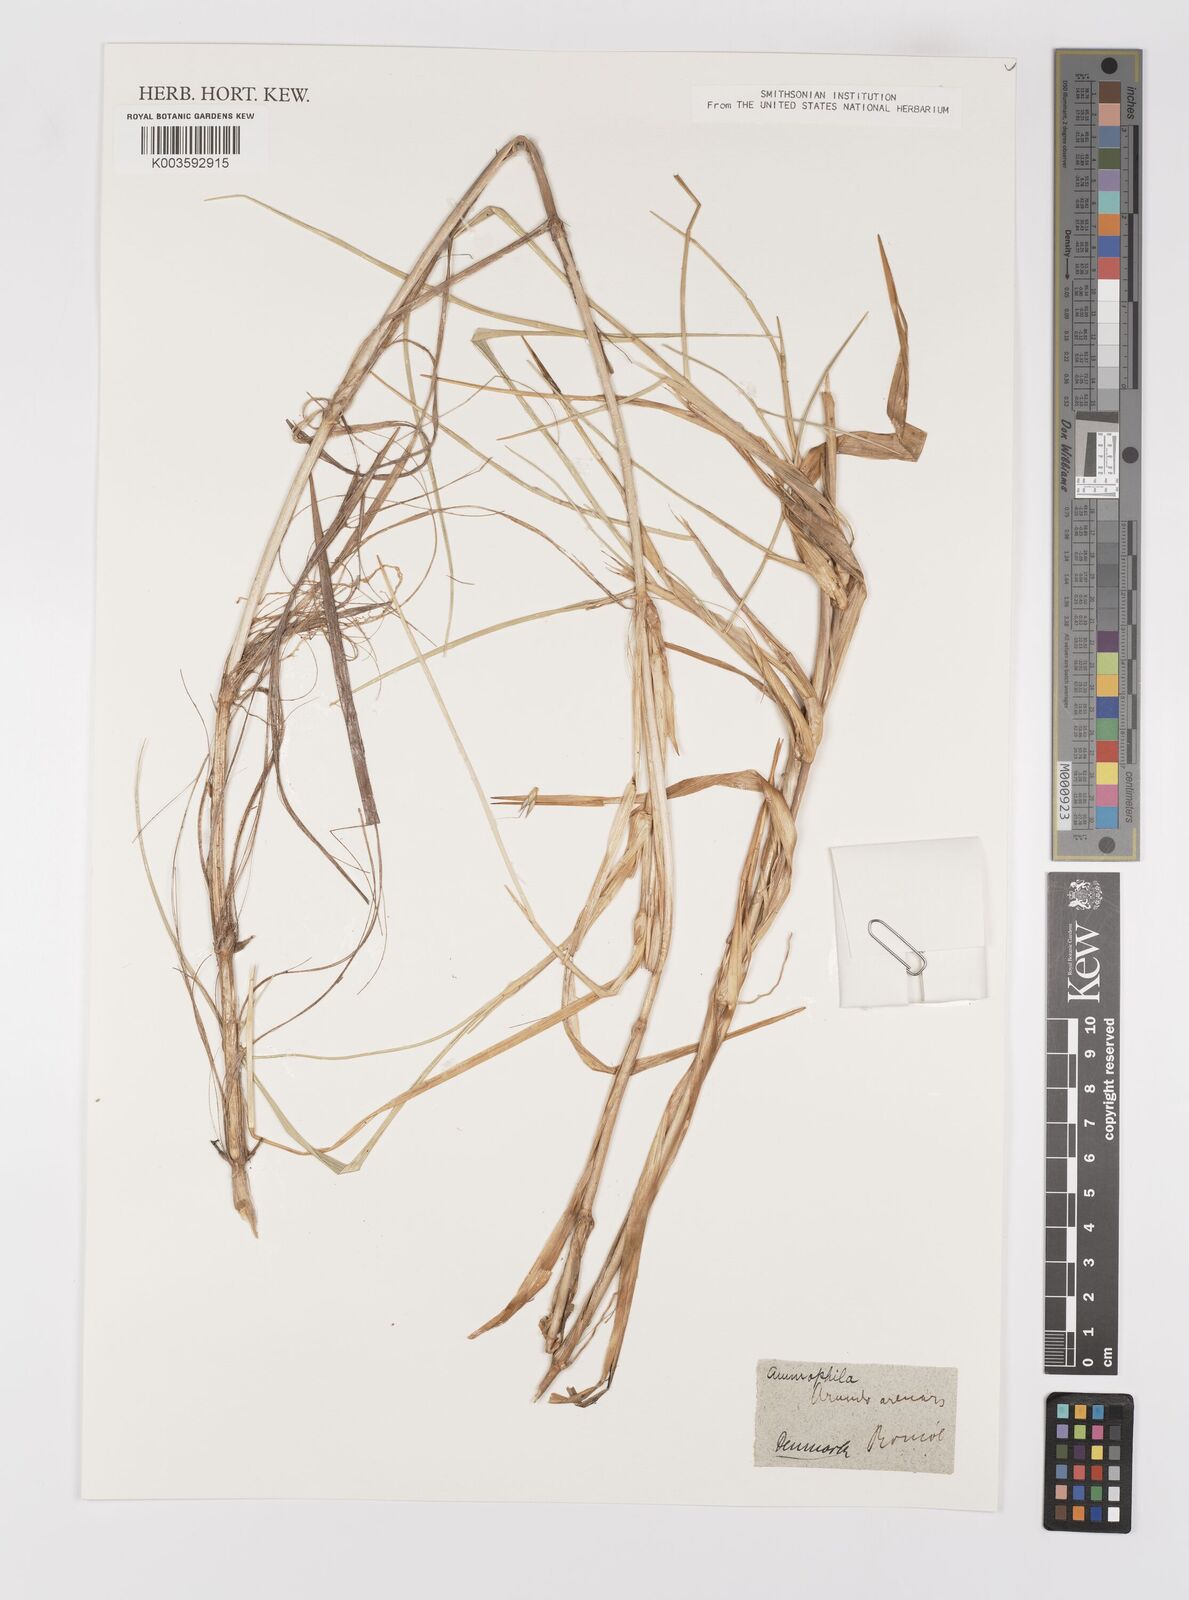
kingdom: Plantae
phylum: Tracheophyta
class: Liliopsida
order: Poales
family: Poaceae
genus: Calamagrostis
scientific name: Calamagrostis arenaria
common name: European beachgrass
